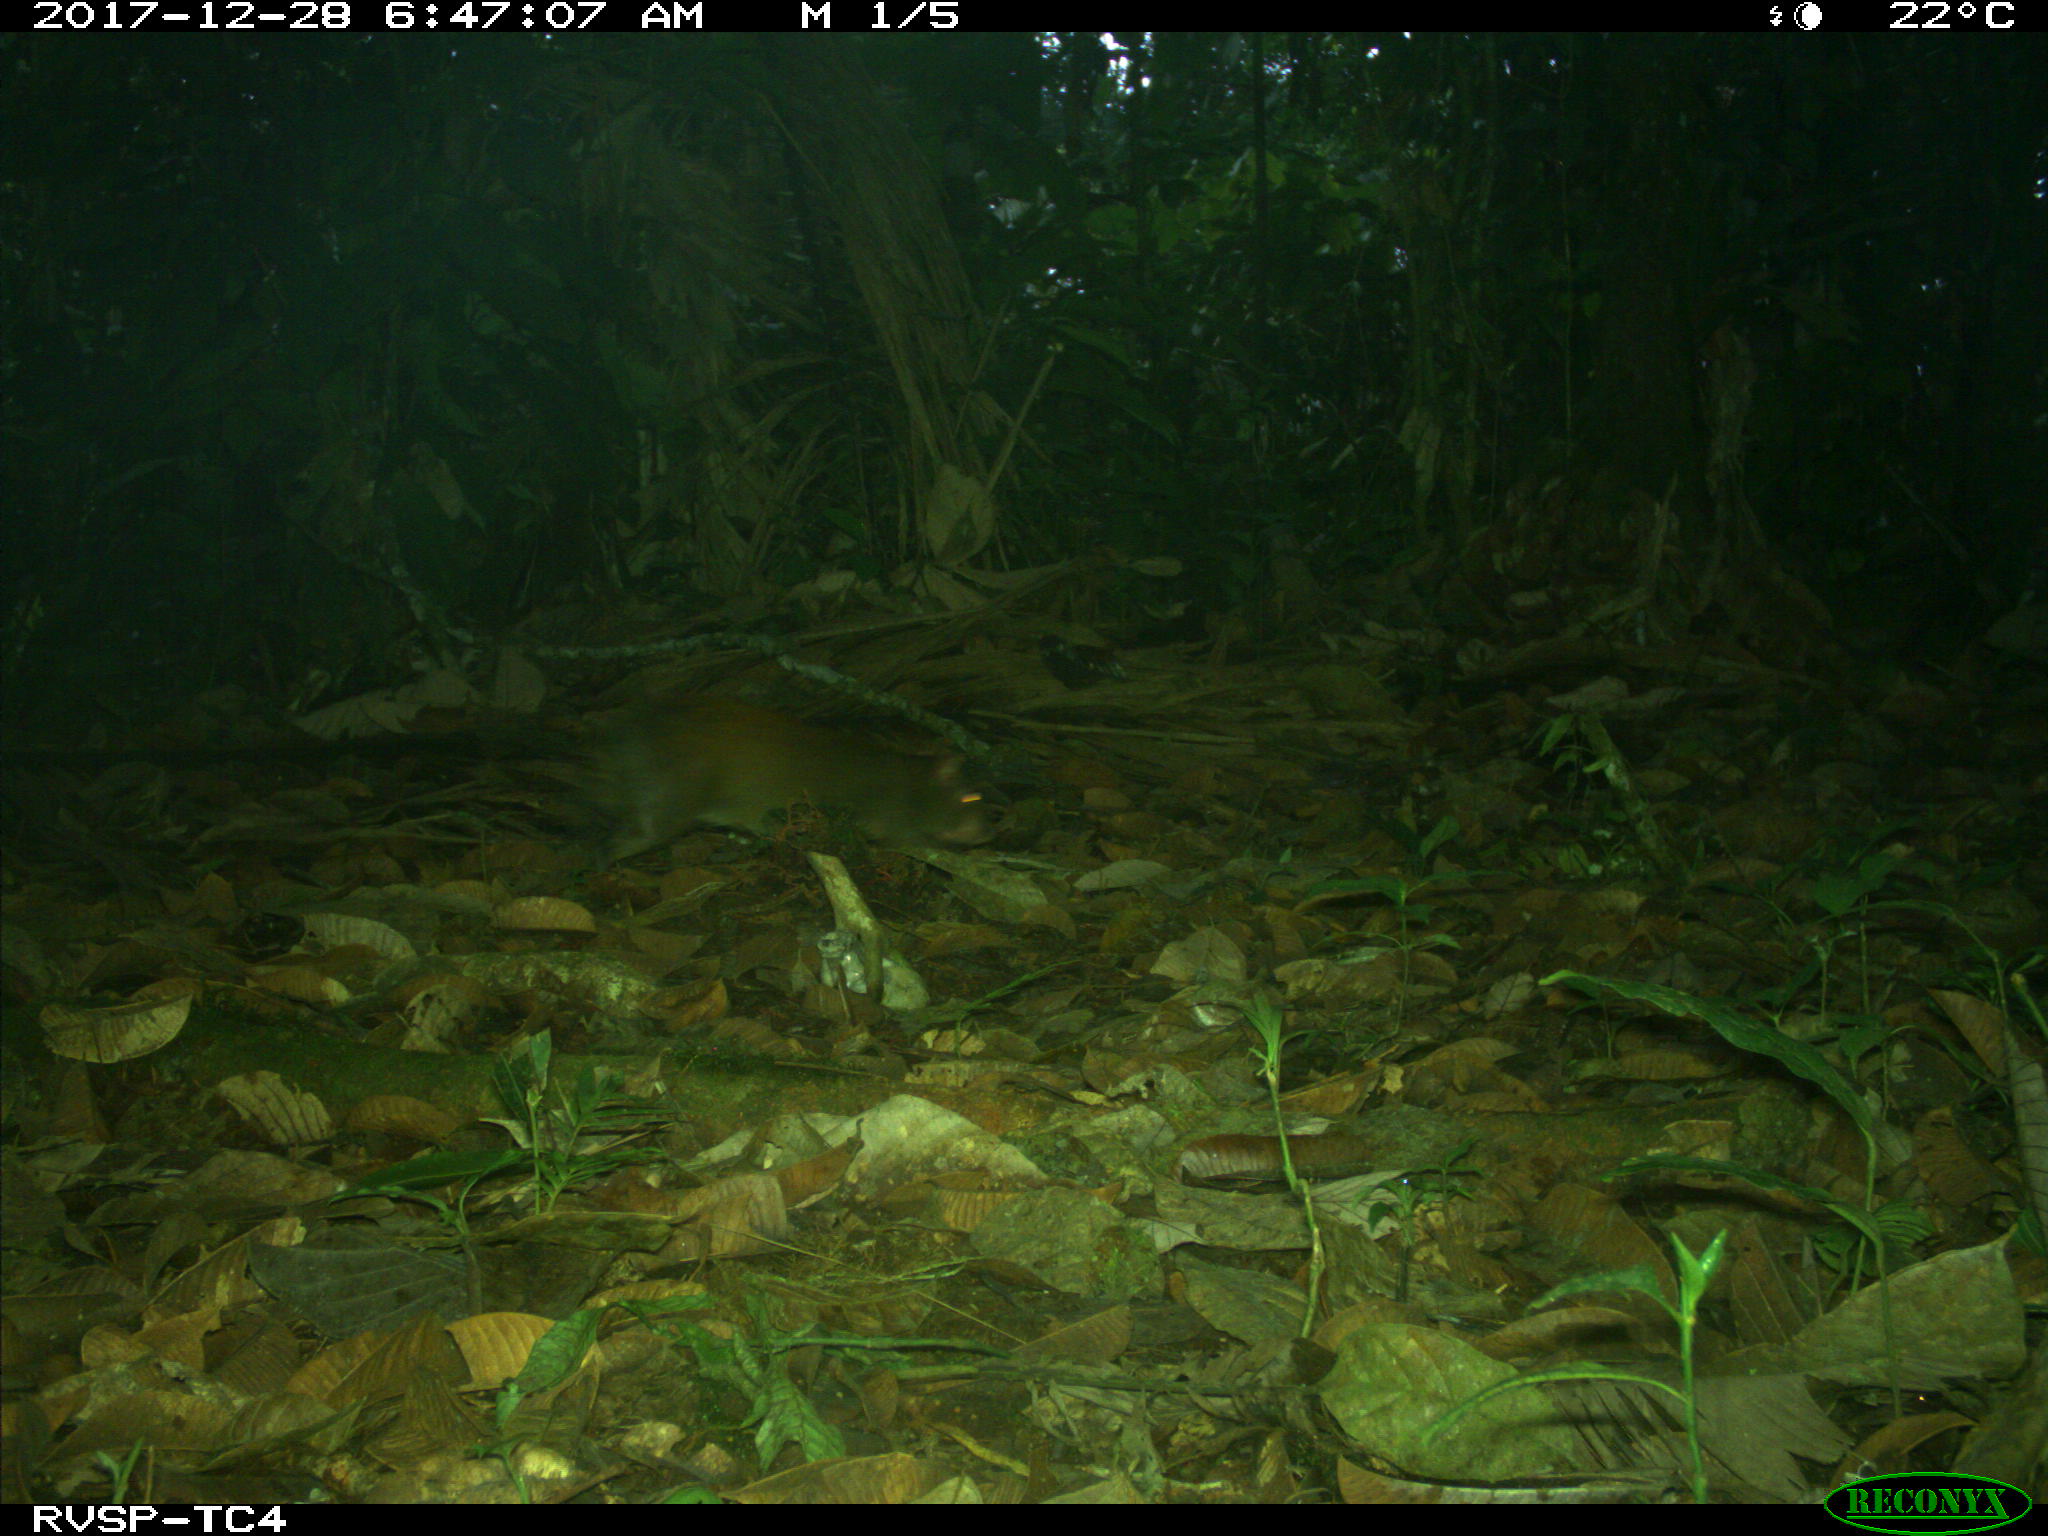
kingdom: Animalia
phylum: Chordata
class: Mammalia
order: Rodentia
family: Dasyproctidae
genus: Dasyprocta
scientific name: Dasyprocta punctata
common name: Central american agouti
